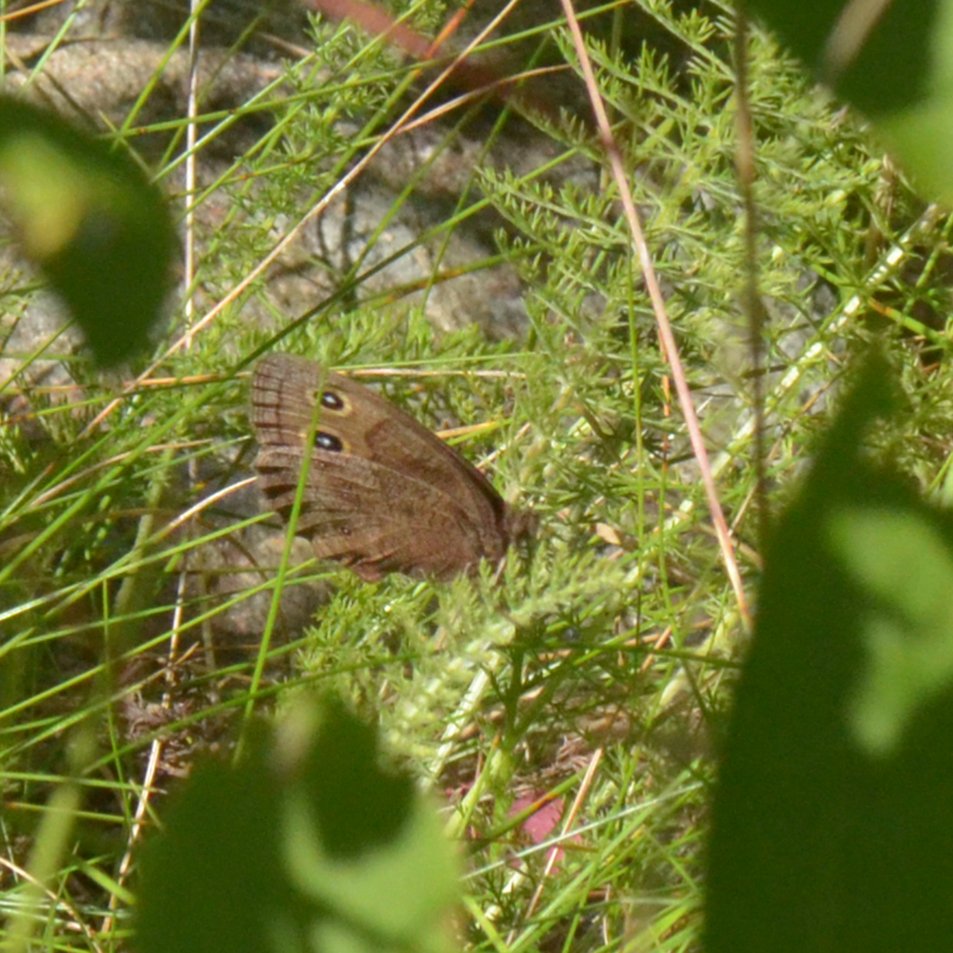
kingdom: Animalia
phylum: Arthropoda
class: Insecta
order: Lepidoptera
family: Nymphalidae
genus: Cercyonis
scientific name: Cercyonis pegala
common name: Common Wood-Nymph
